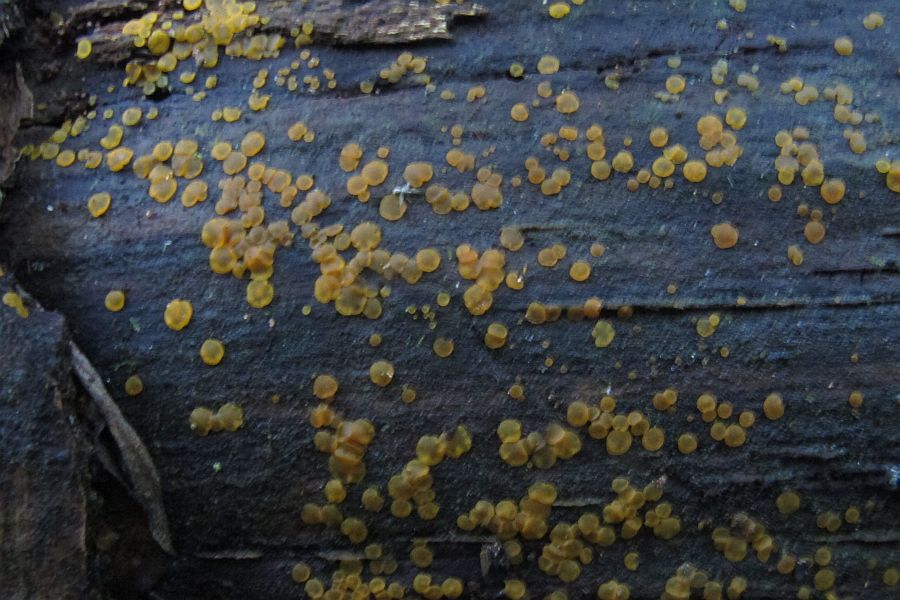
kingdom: Fungi
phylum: Ascomycota
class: Orbiliomycetes
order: Orbiliales
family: Orbiliaceae
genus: Orbilia
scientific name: Orbilia xanthostigma
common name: krumsporet voksskive
